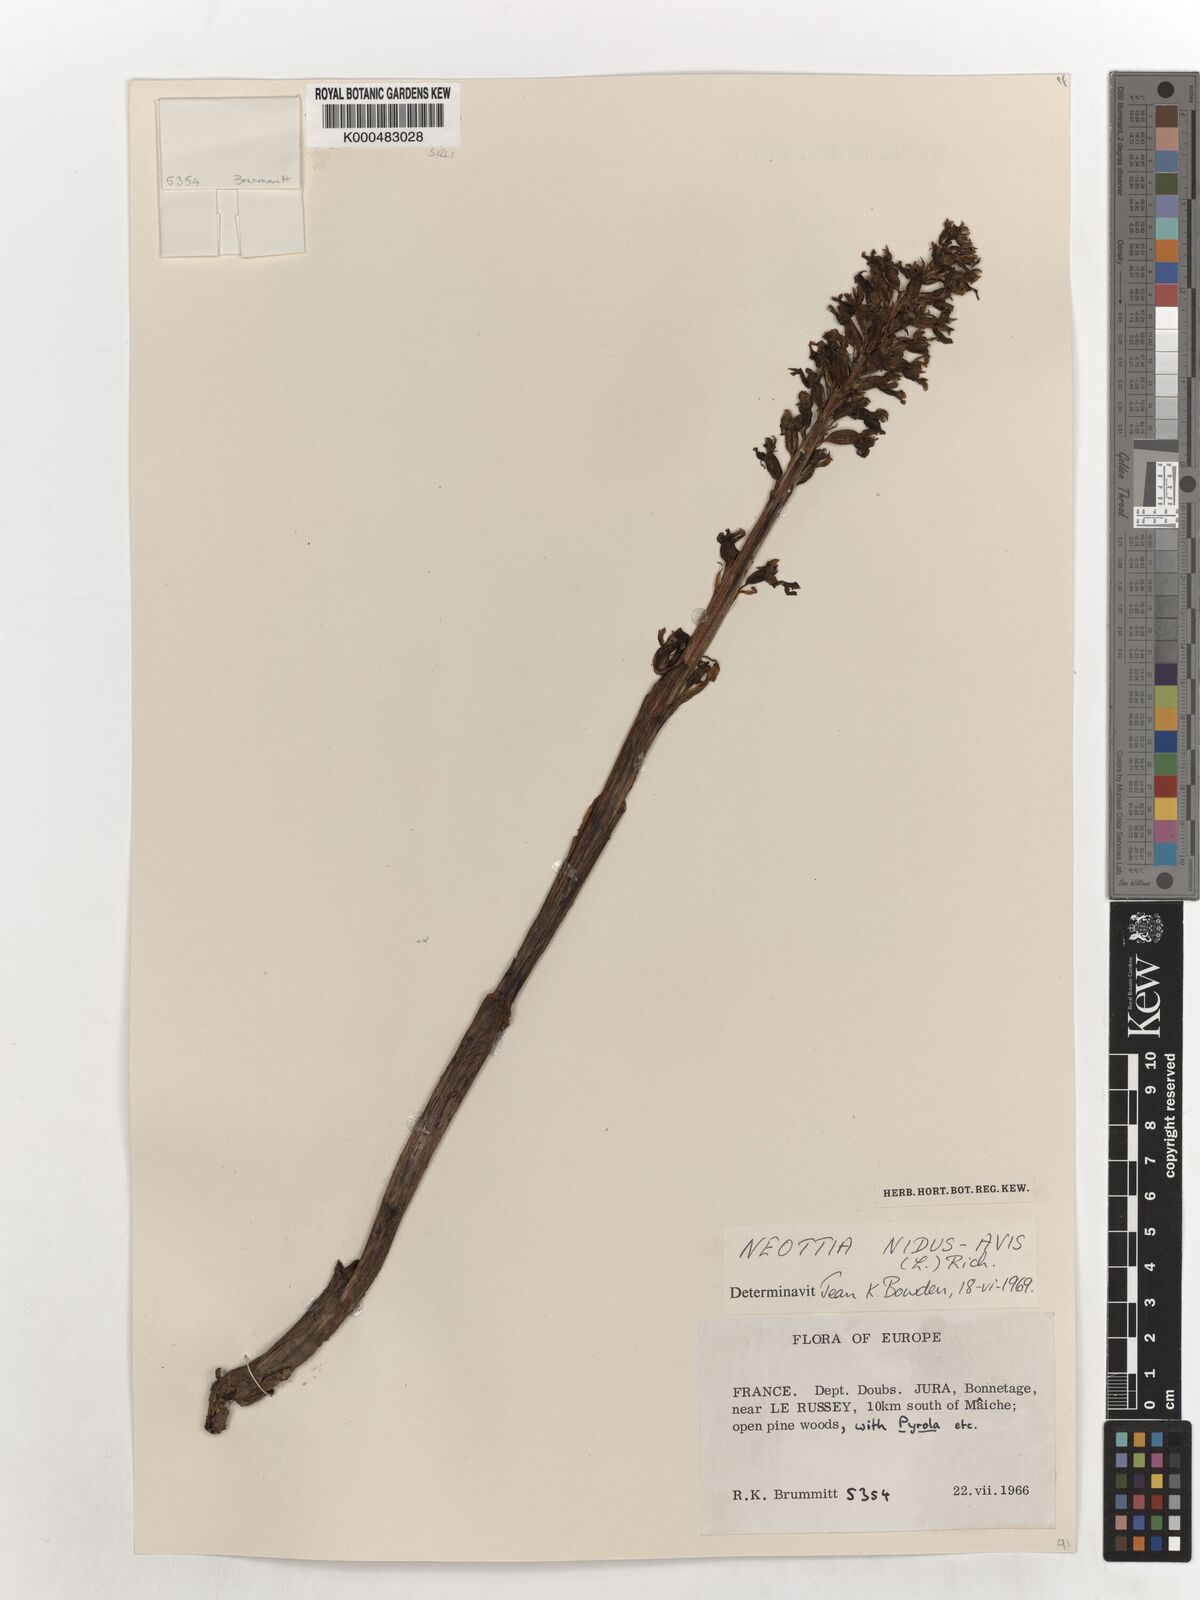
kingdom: Plantae
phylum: Tracheophyta
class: Liliopsida
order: Asparagales
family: Orchidaceae
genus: Neottia
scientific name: Neottia nidus-avis
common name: Bird's-nest orchid
